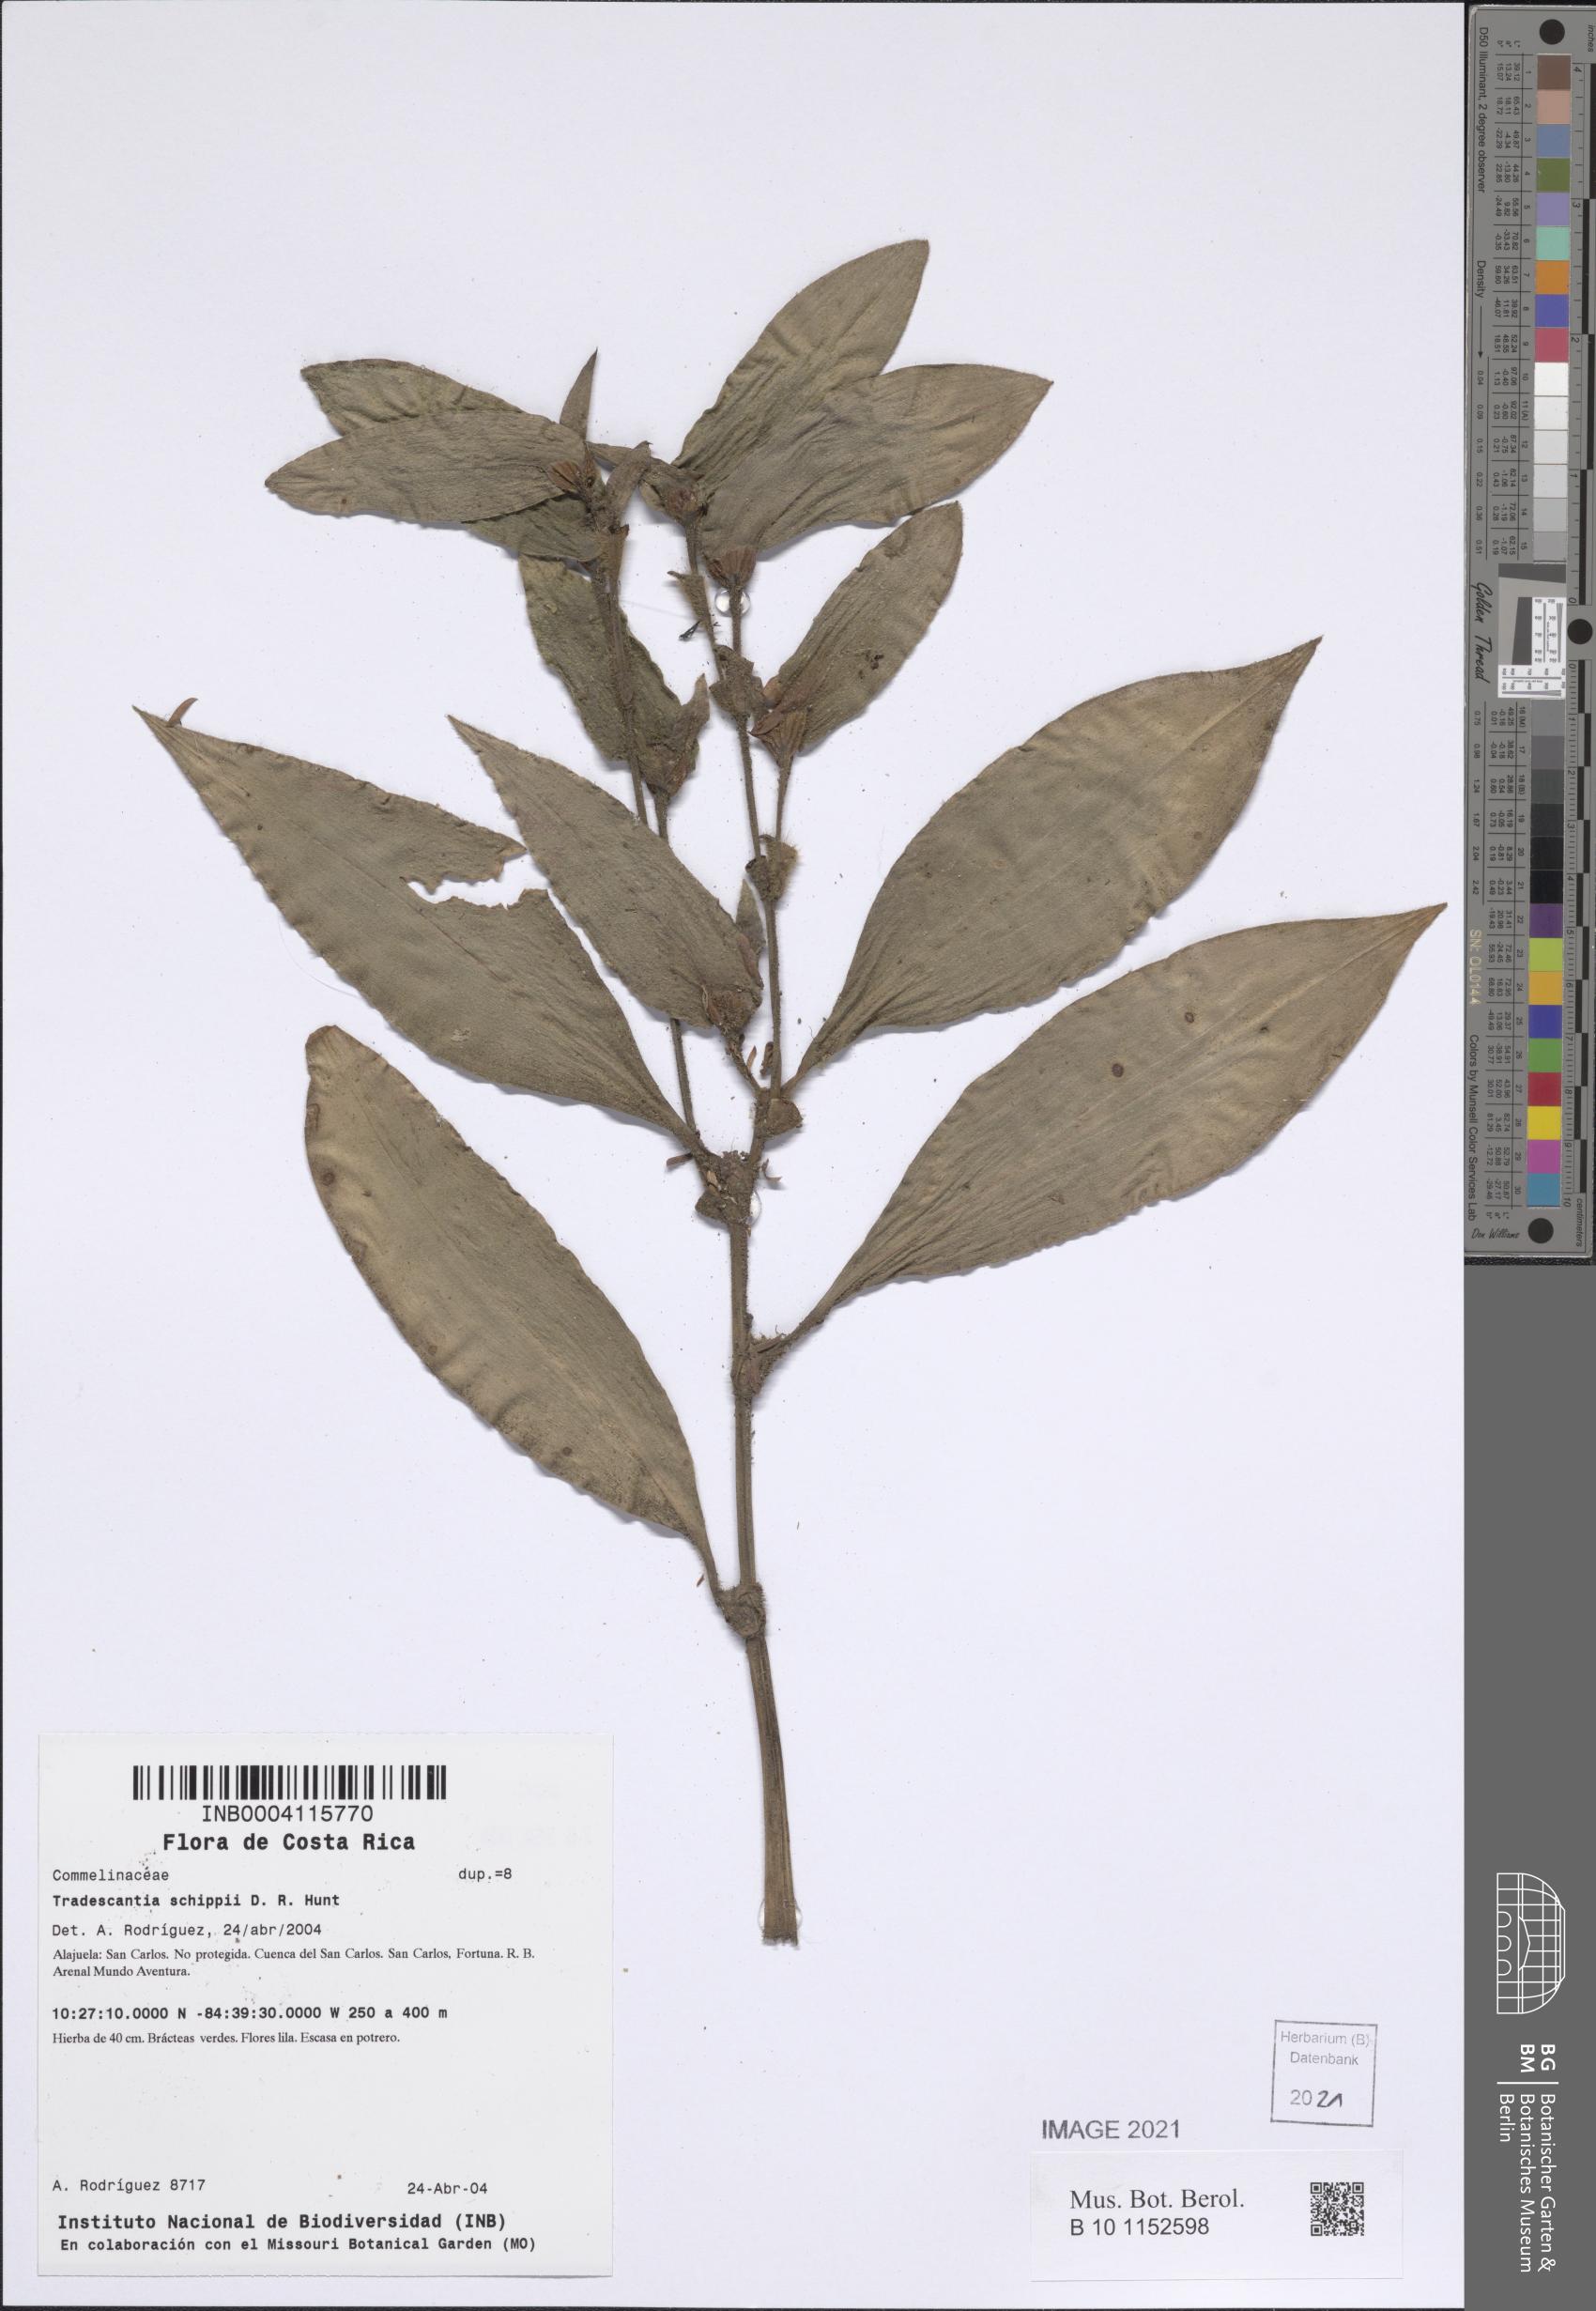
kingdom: Plantae
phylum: Tracheophyta
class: Liliopsida
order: Commelinales
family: Commelinaceae
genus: Tradescantia
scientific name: Tradescantia schippii
